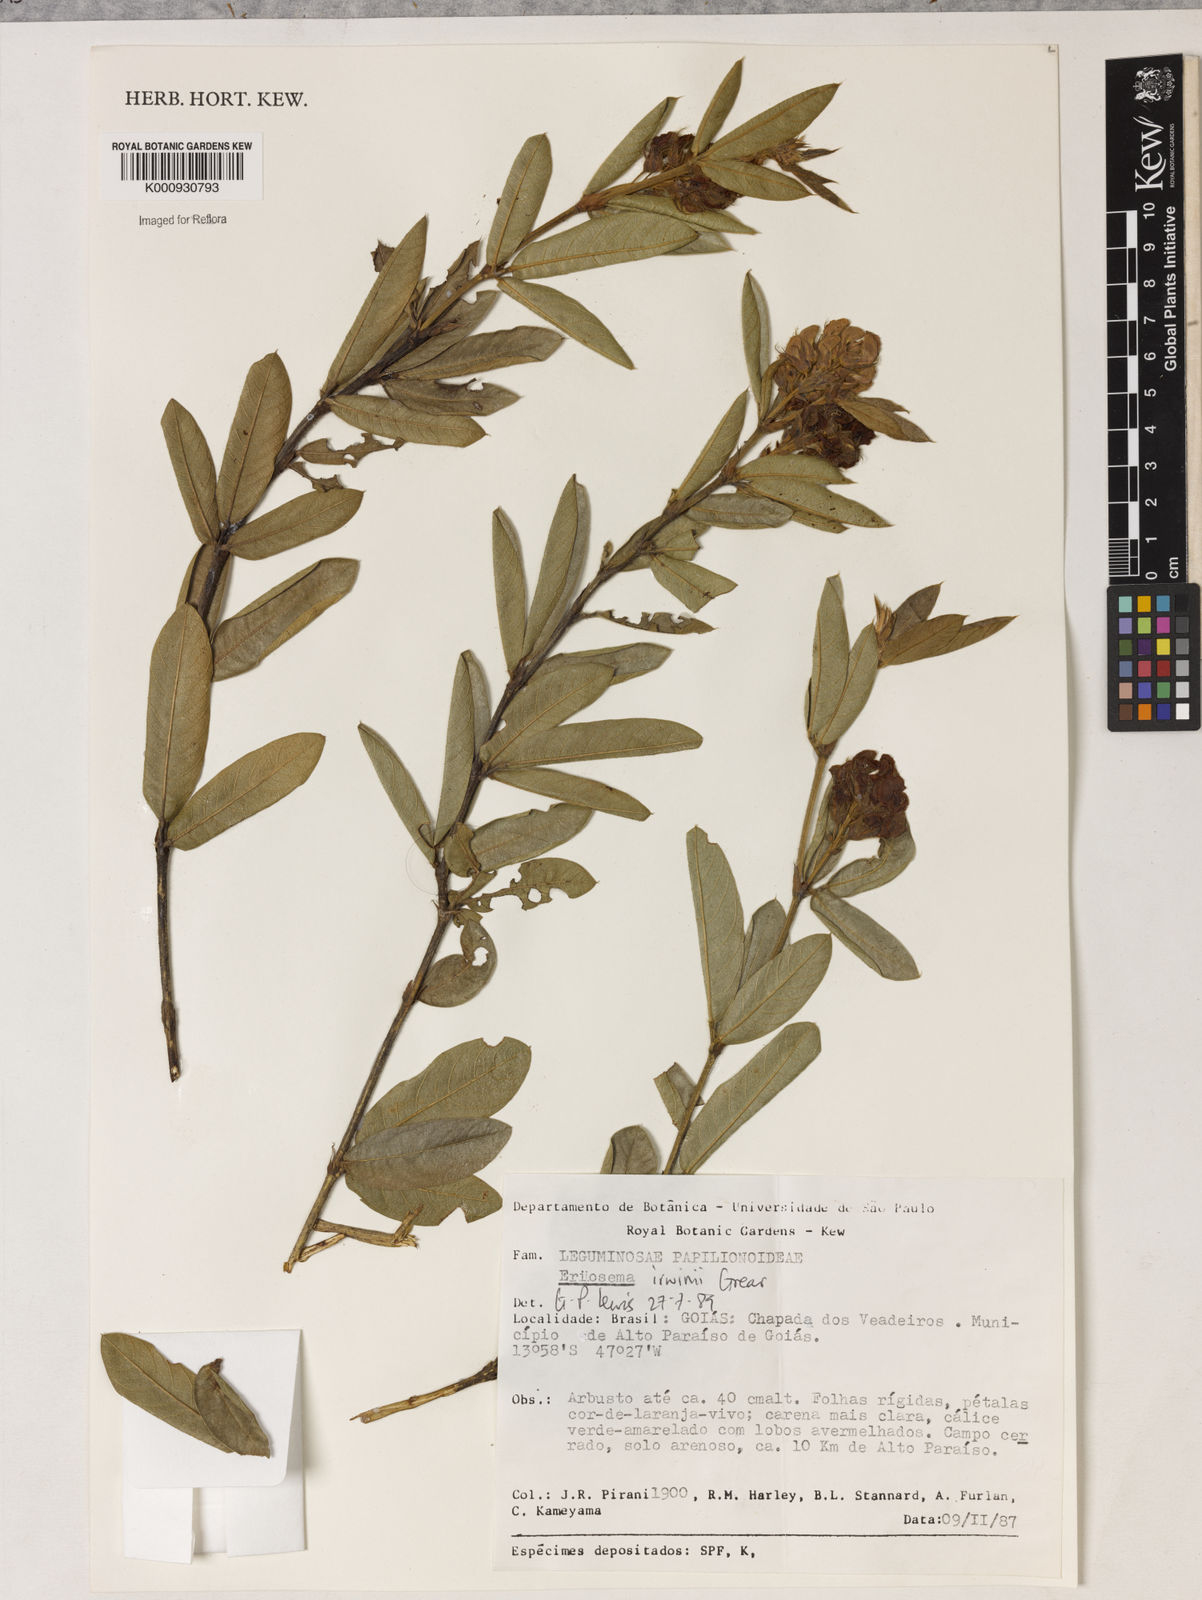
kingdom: Plantae
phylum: Tracheophyta
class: Magnoliopsida
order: Fabales
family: Fabaceae
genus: Eriosema
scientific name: Eriosema irwinii
